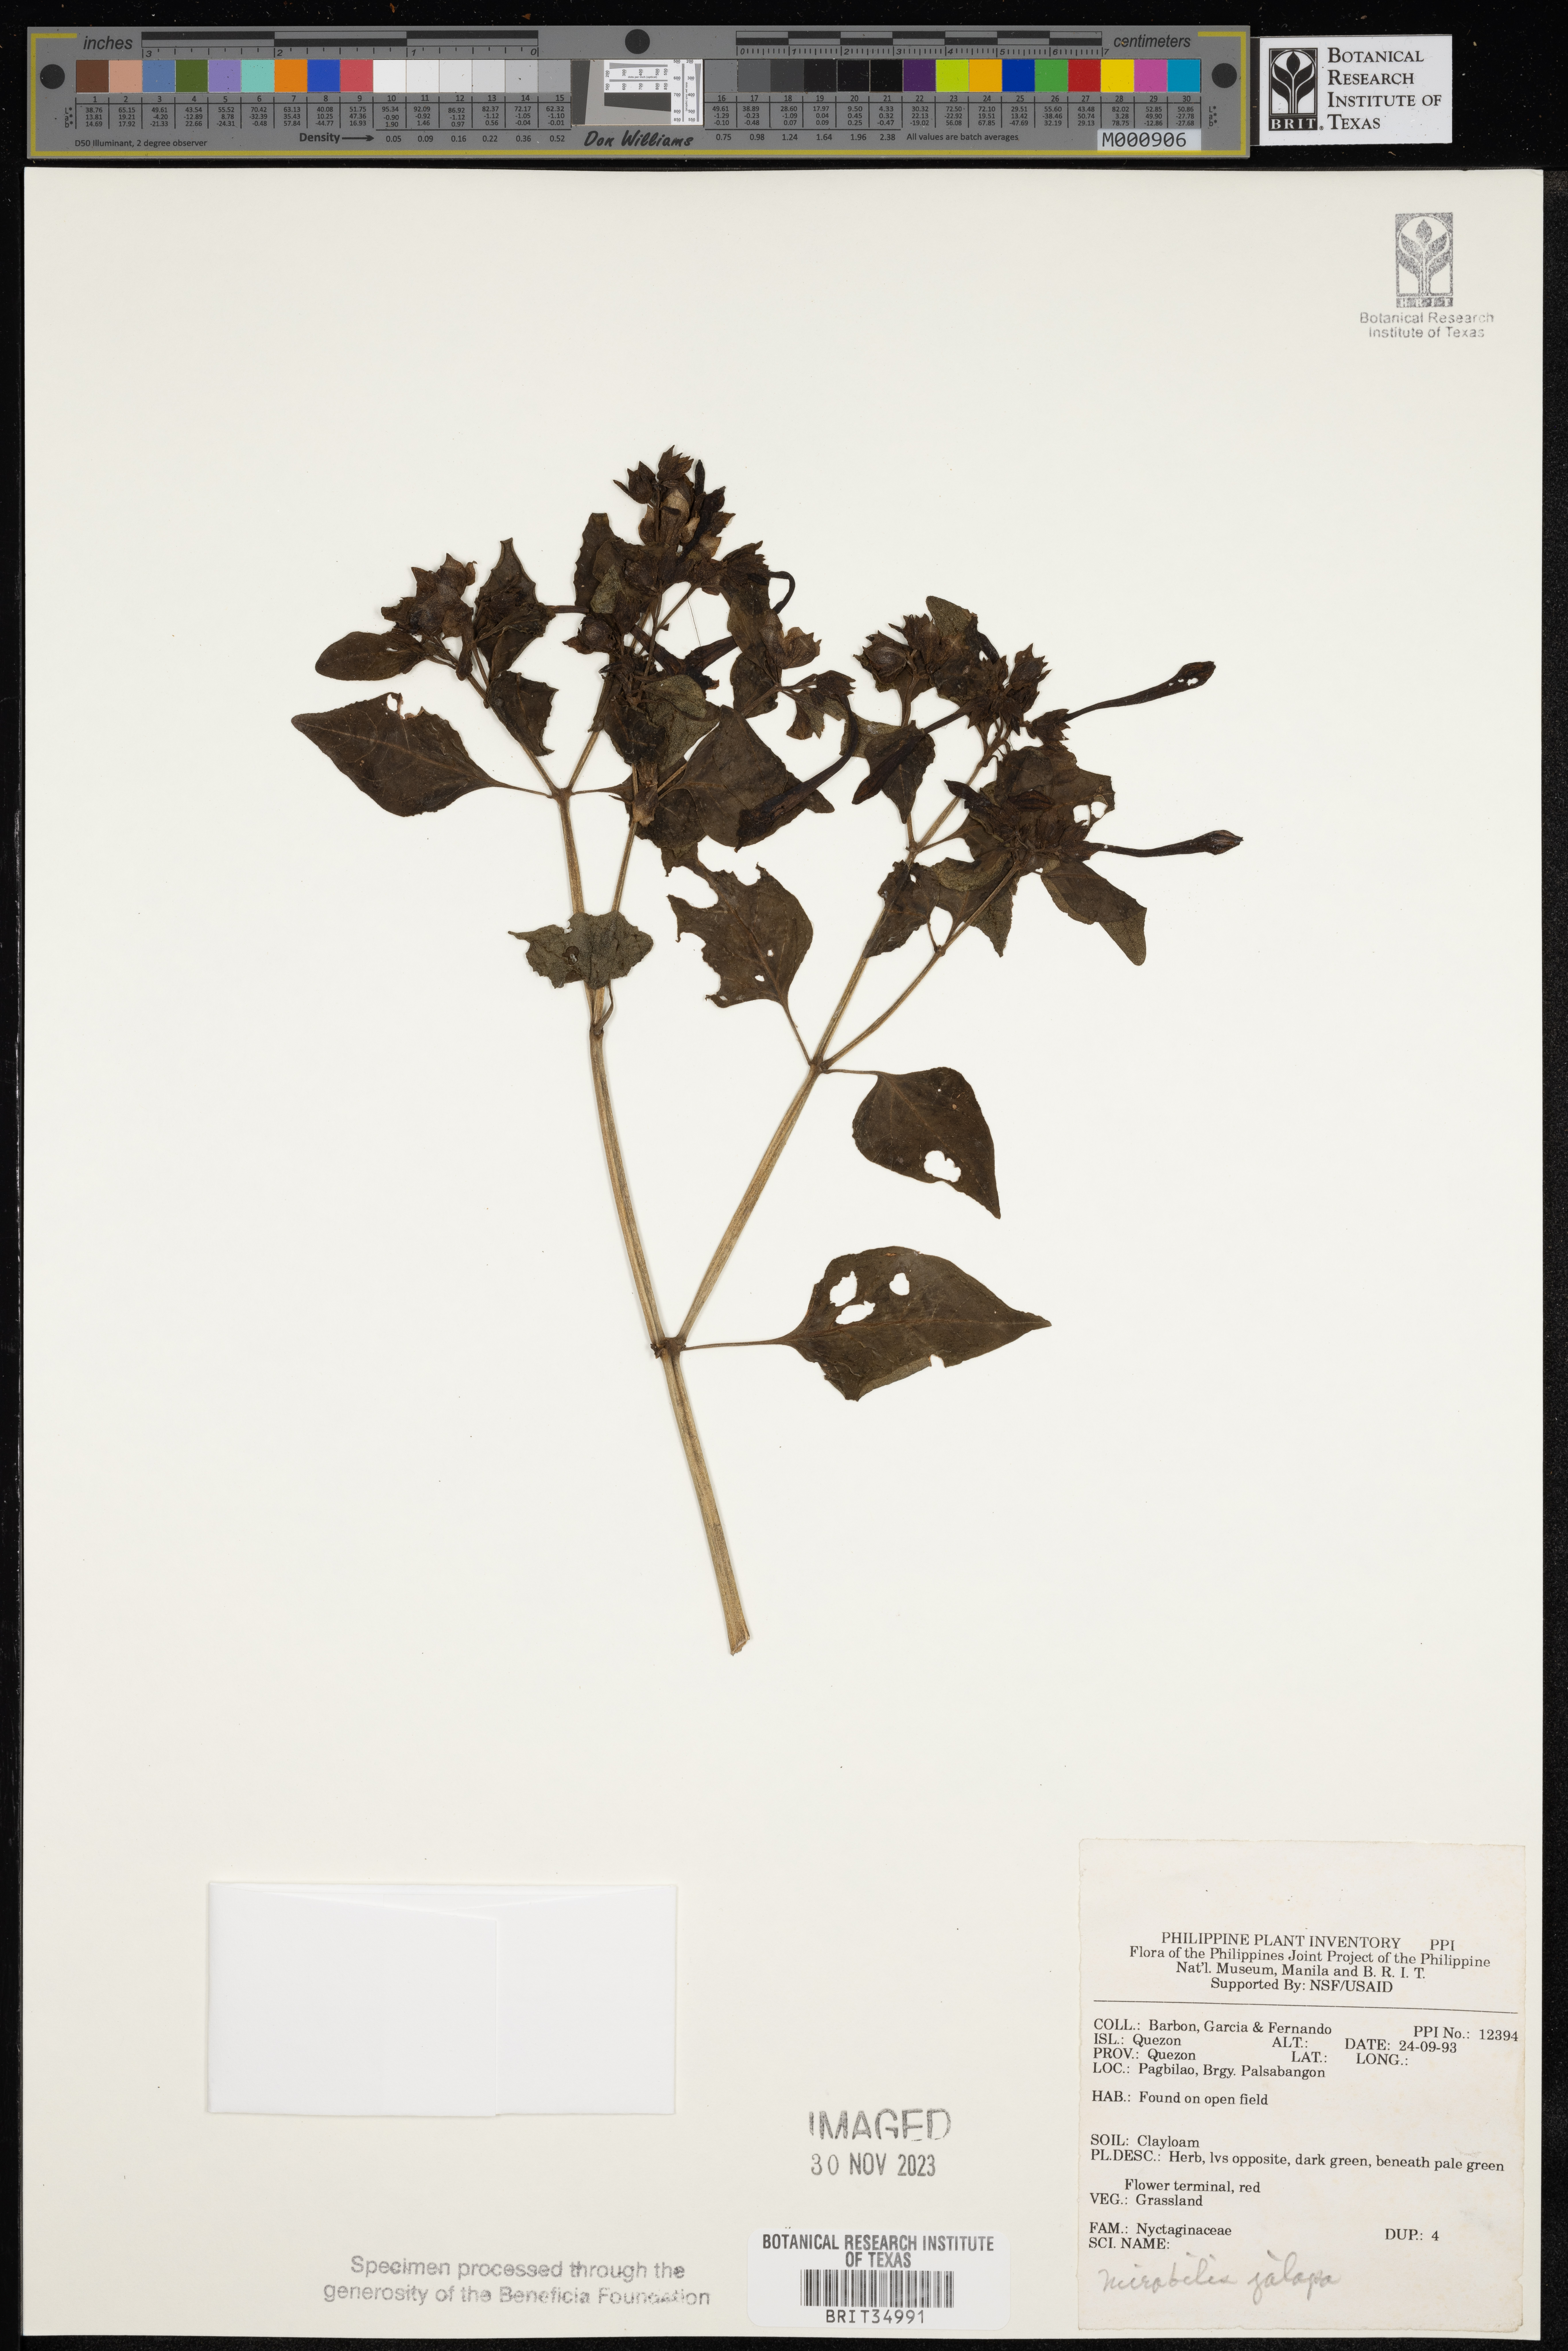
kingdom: Plantae
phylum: Tracheophyta
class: Magnoliopsida
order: Caryophyllales
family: Nyctaginaceae
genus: Mirabilis
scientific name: Mirabilis jalapa
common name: Marvel-of-peru
